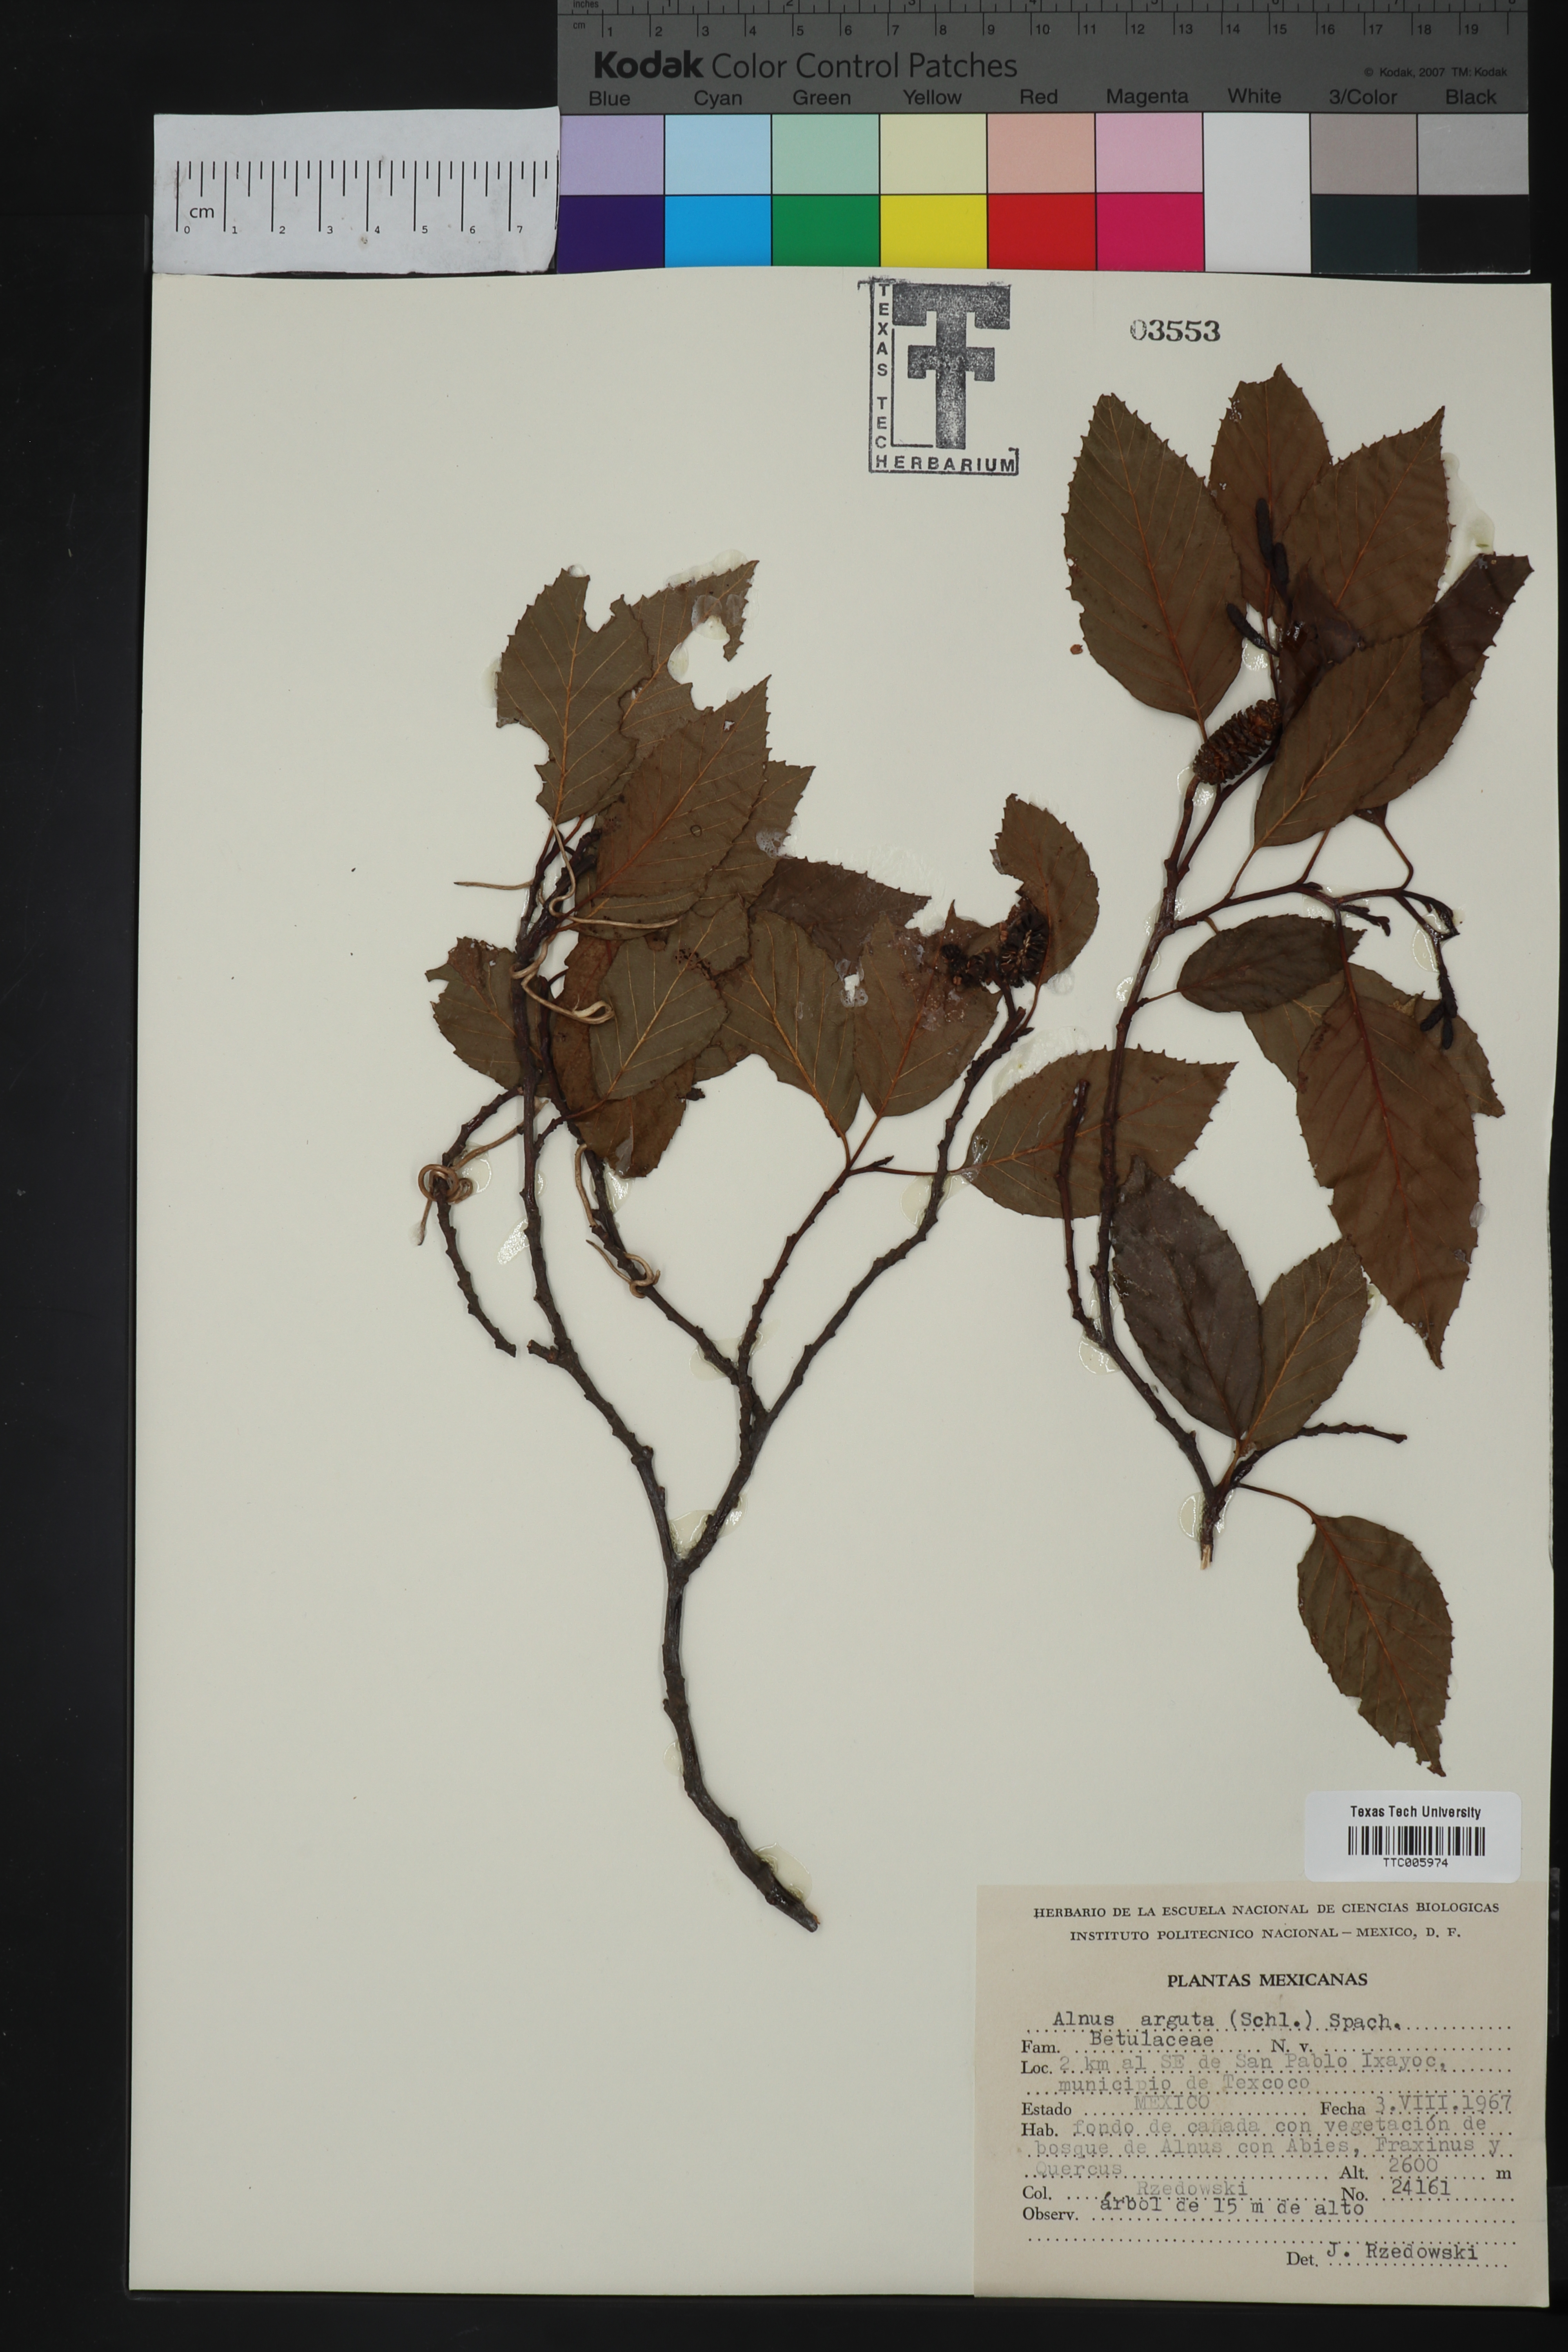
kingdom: Plantae
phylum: Tracheophyta
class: Magnoliopsida
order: Fagales
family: Betulaceae
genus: Alnus
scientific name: Alnus acuminata
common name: Alder
